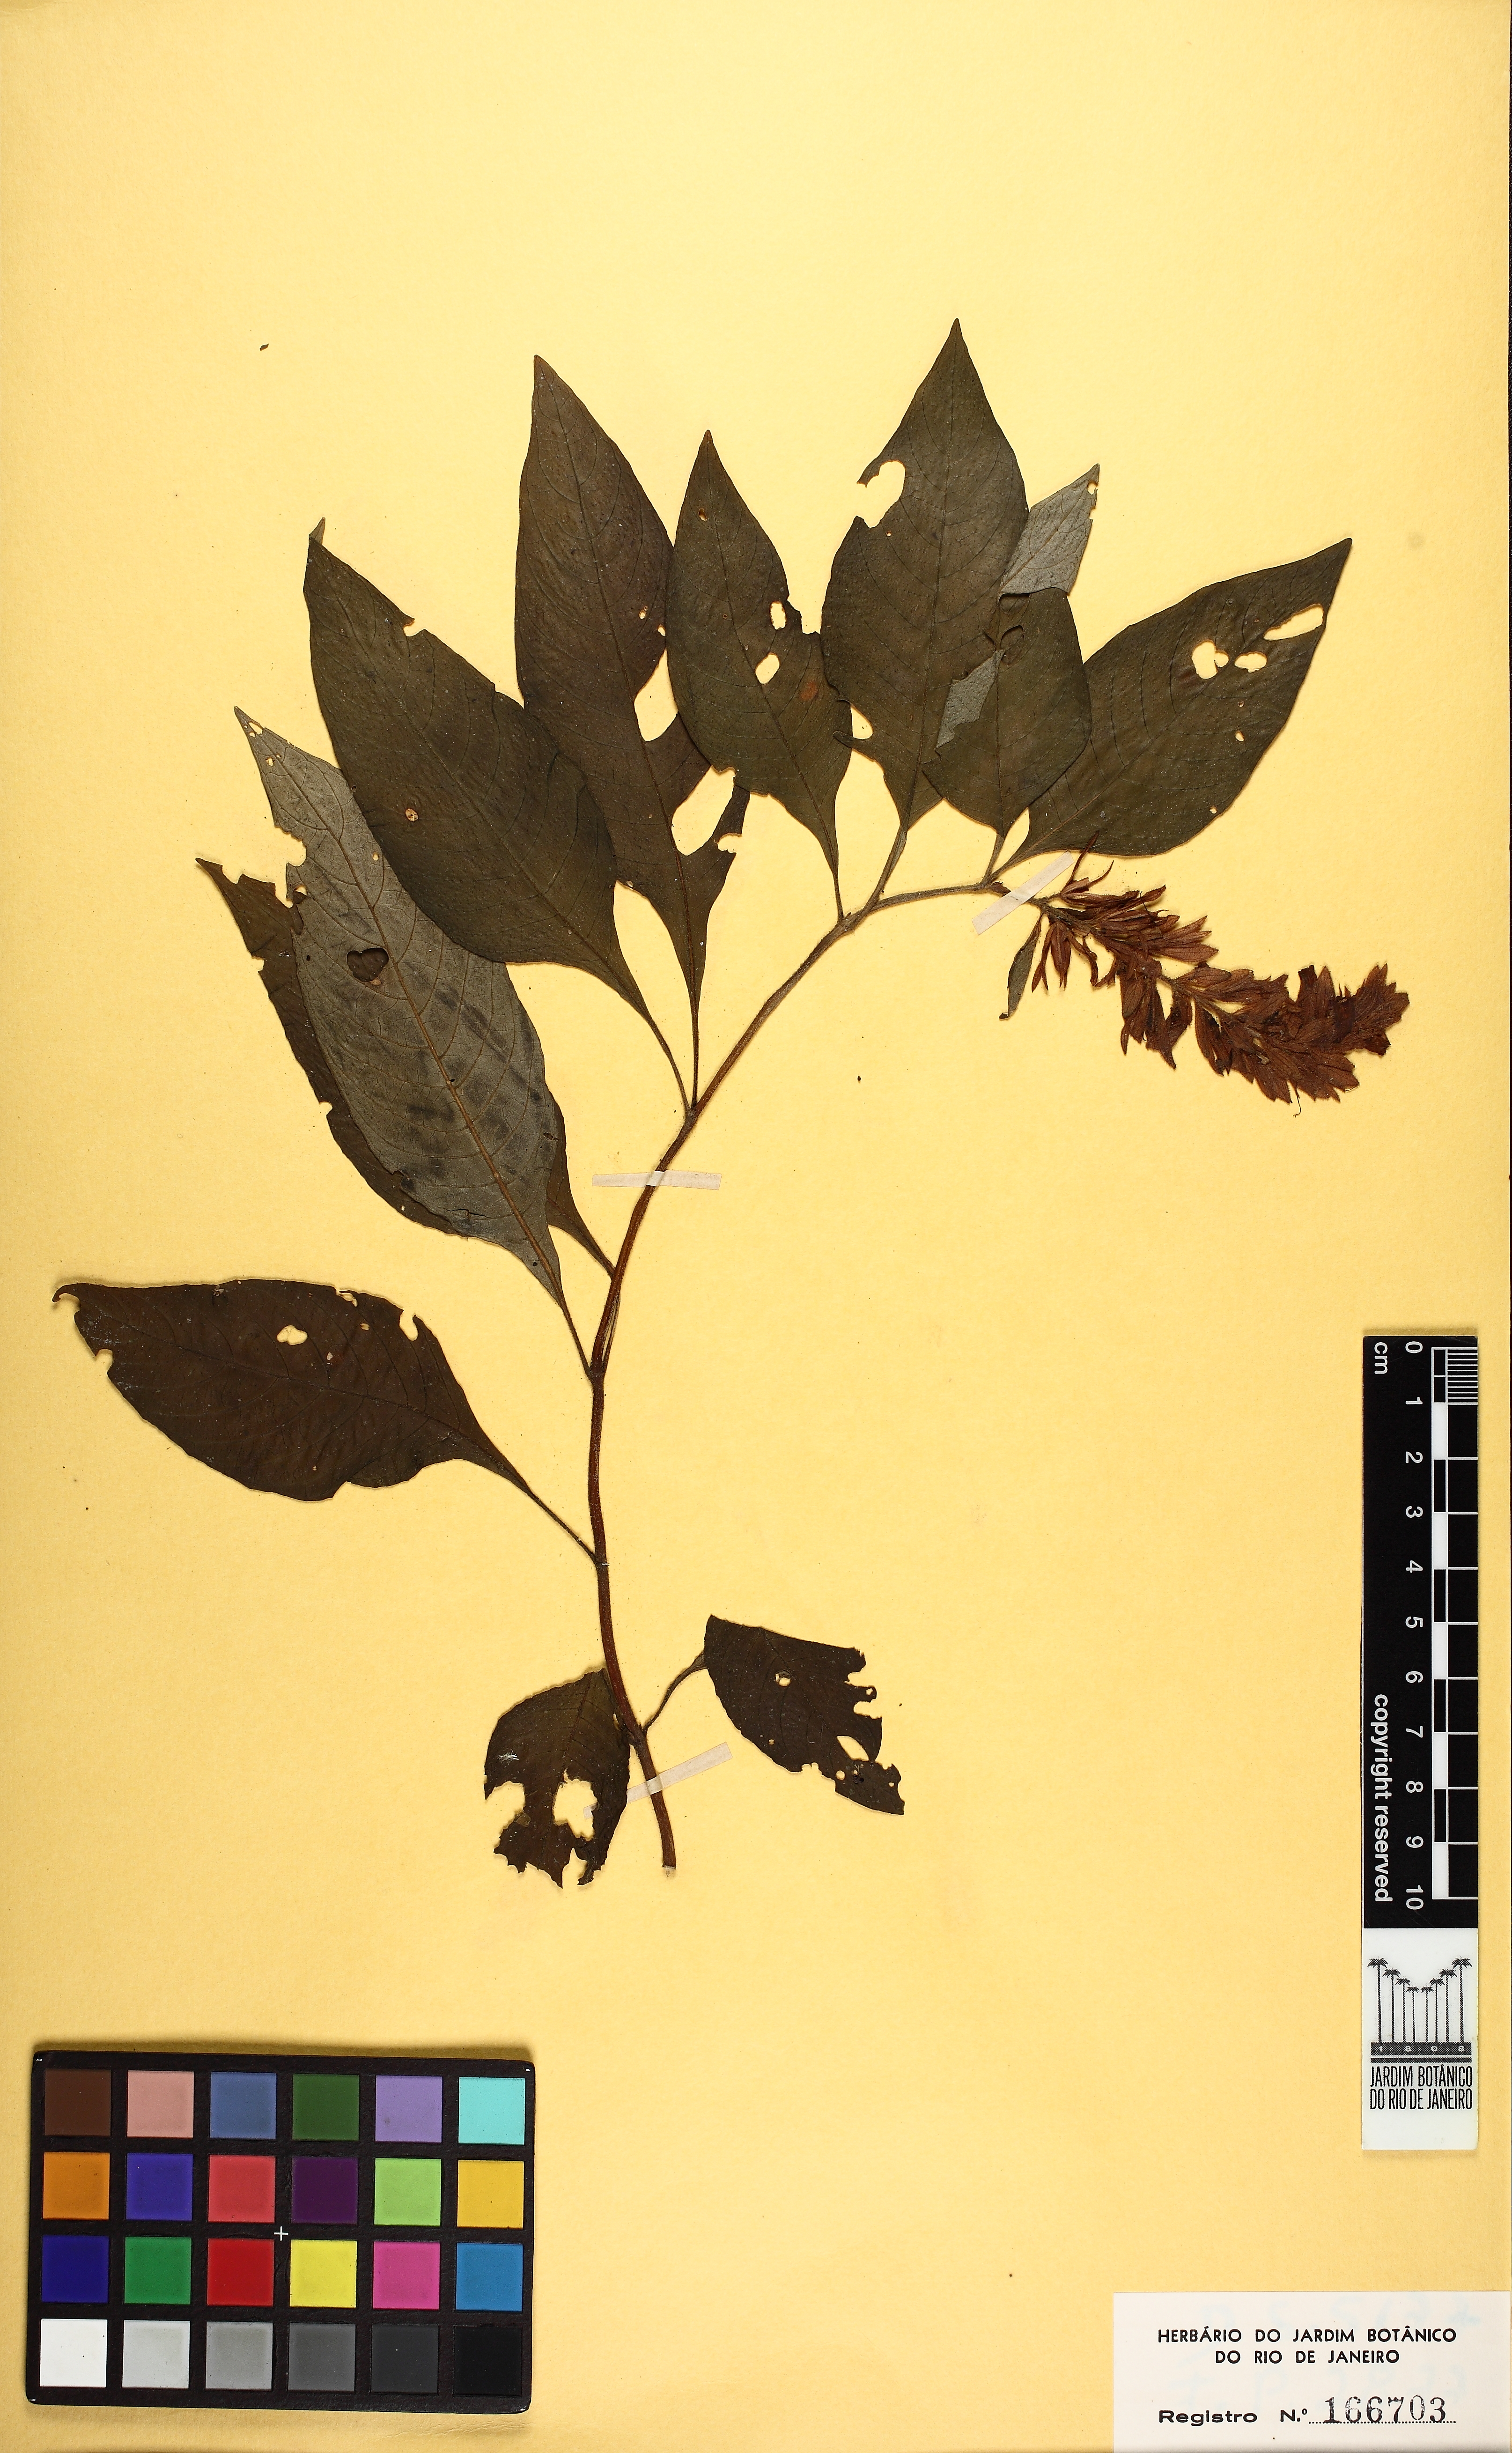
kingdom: Plantae
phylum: Tracheophyta
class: Magnoliopsida
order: Lamiales
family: Acanthaceae
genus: Staurogyne
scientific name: Staurogyne itatiaiae
